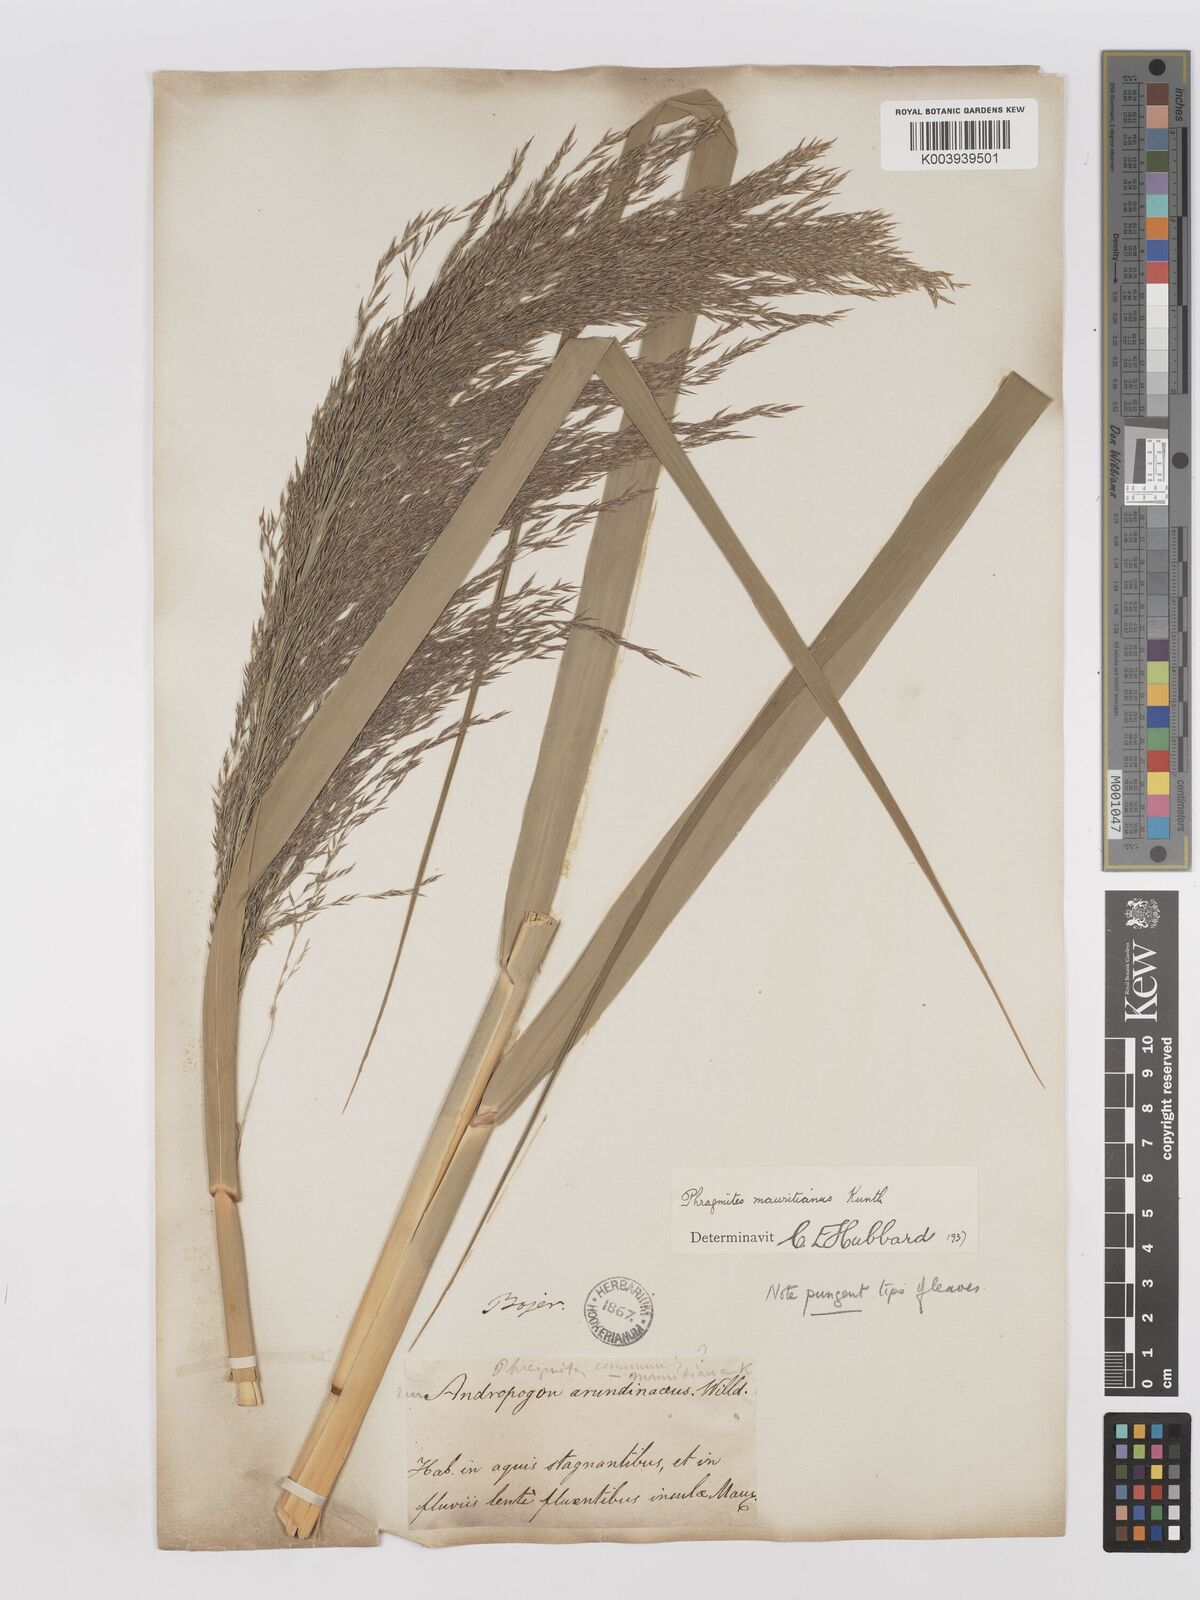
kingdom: Plantae
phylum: Tracheophyta
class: Liliopsida
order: Poales
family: Poaceae
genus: Phragmites
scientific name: Phragmites mauritianus
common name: Reed grass
